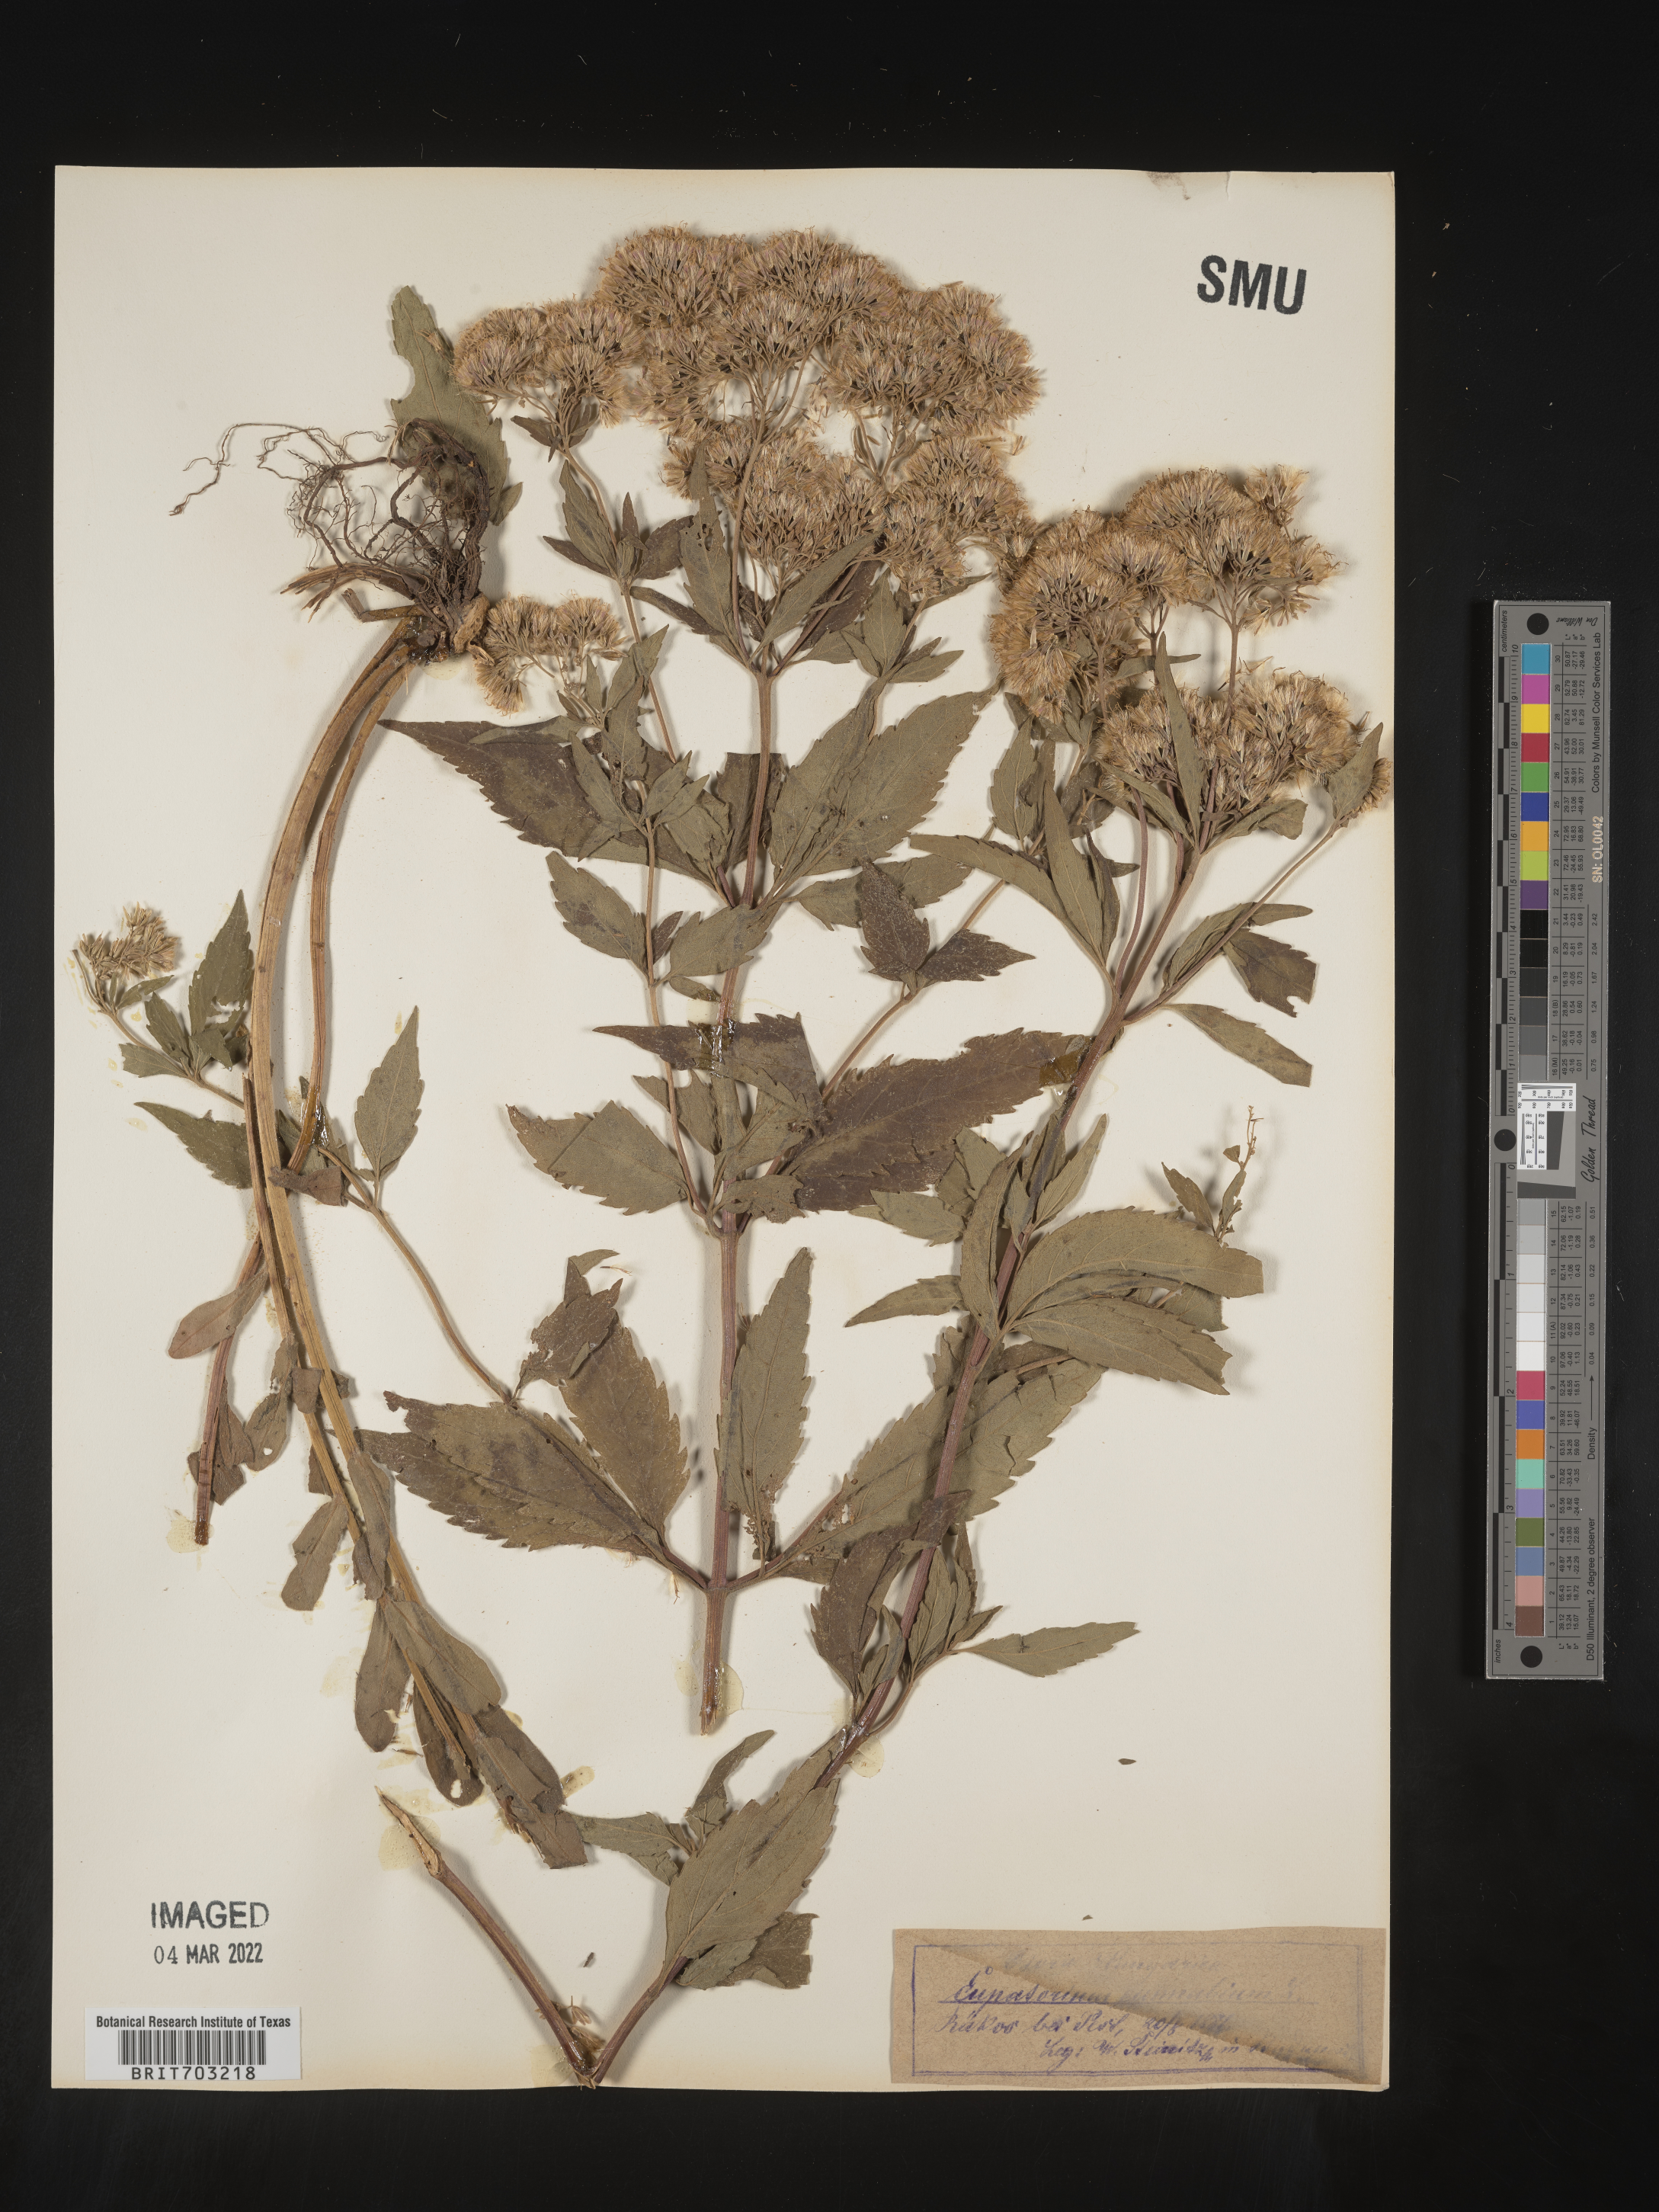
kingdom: Plantae
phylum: Tracheophyta
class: Magnoliopsida
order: Asterales
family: Asteraceae
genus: Eupatorium
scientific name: Eupatorium
